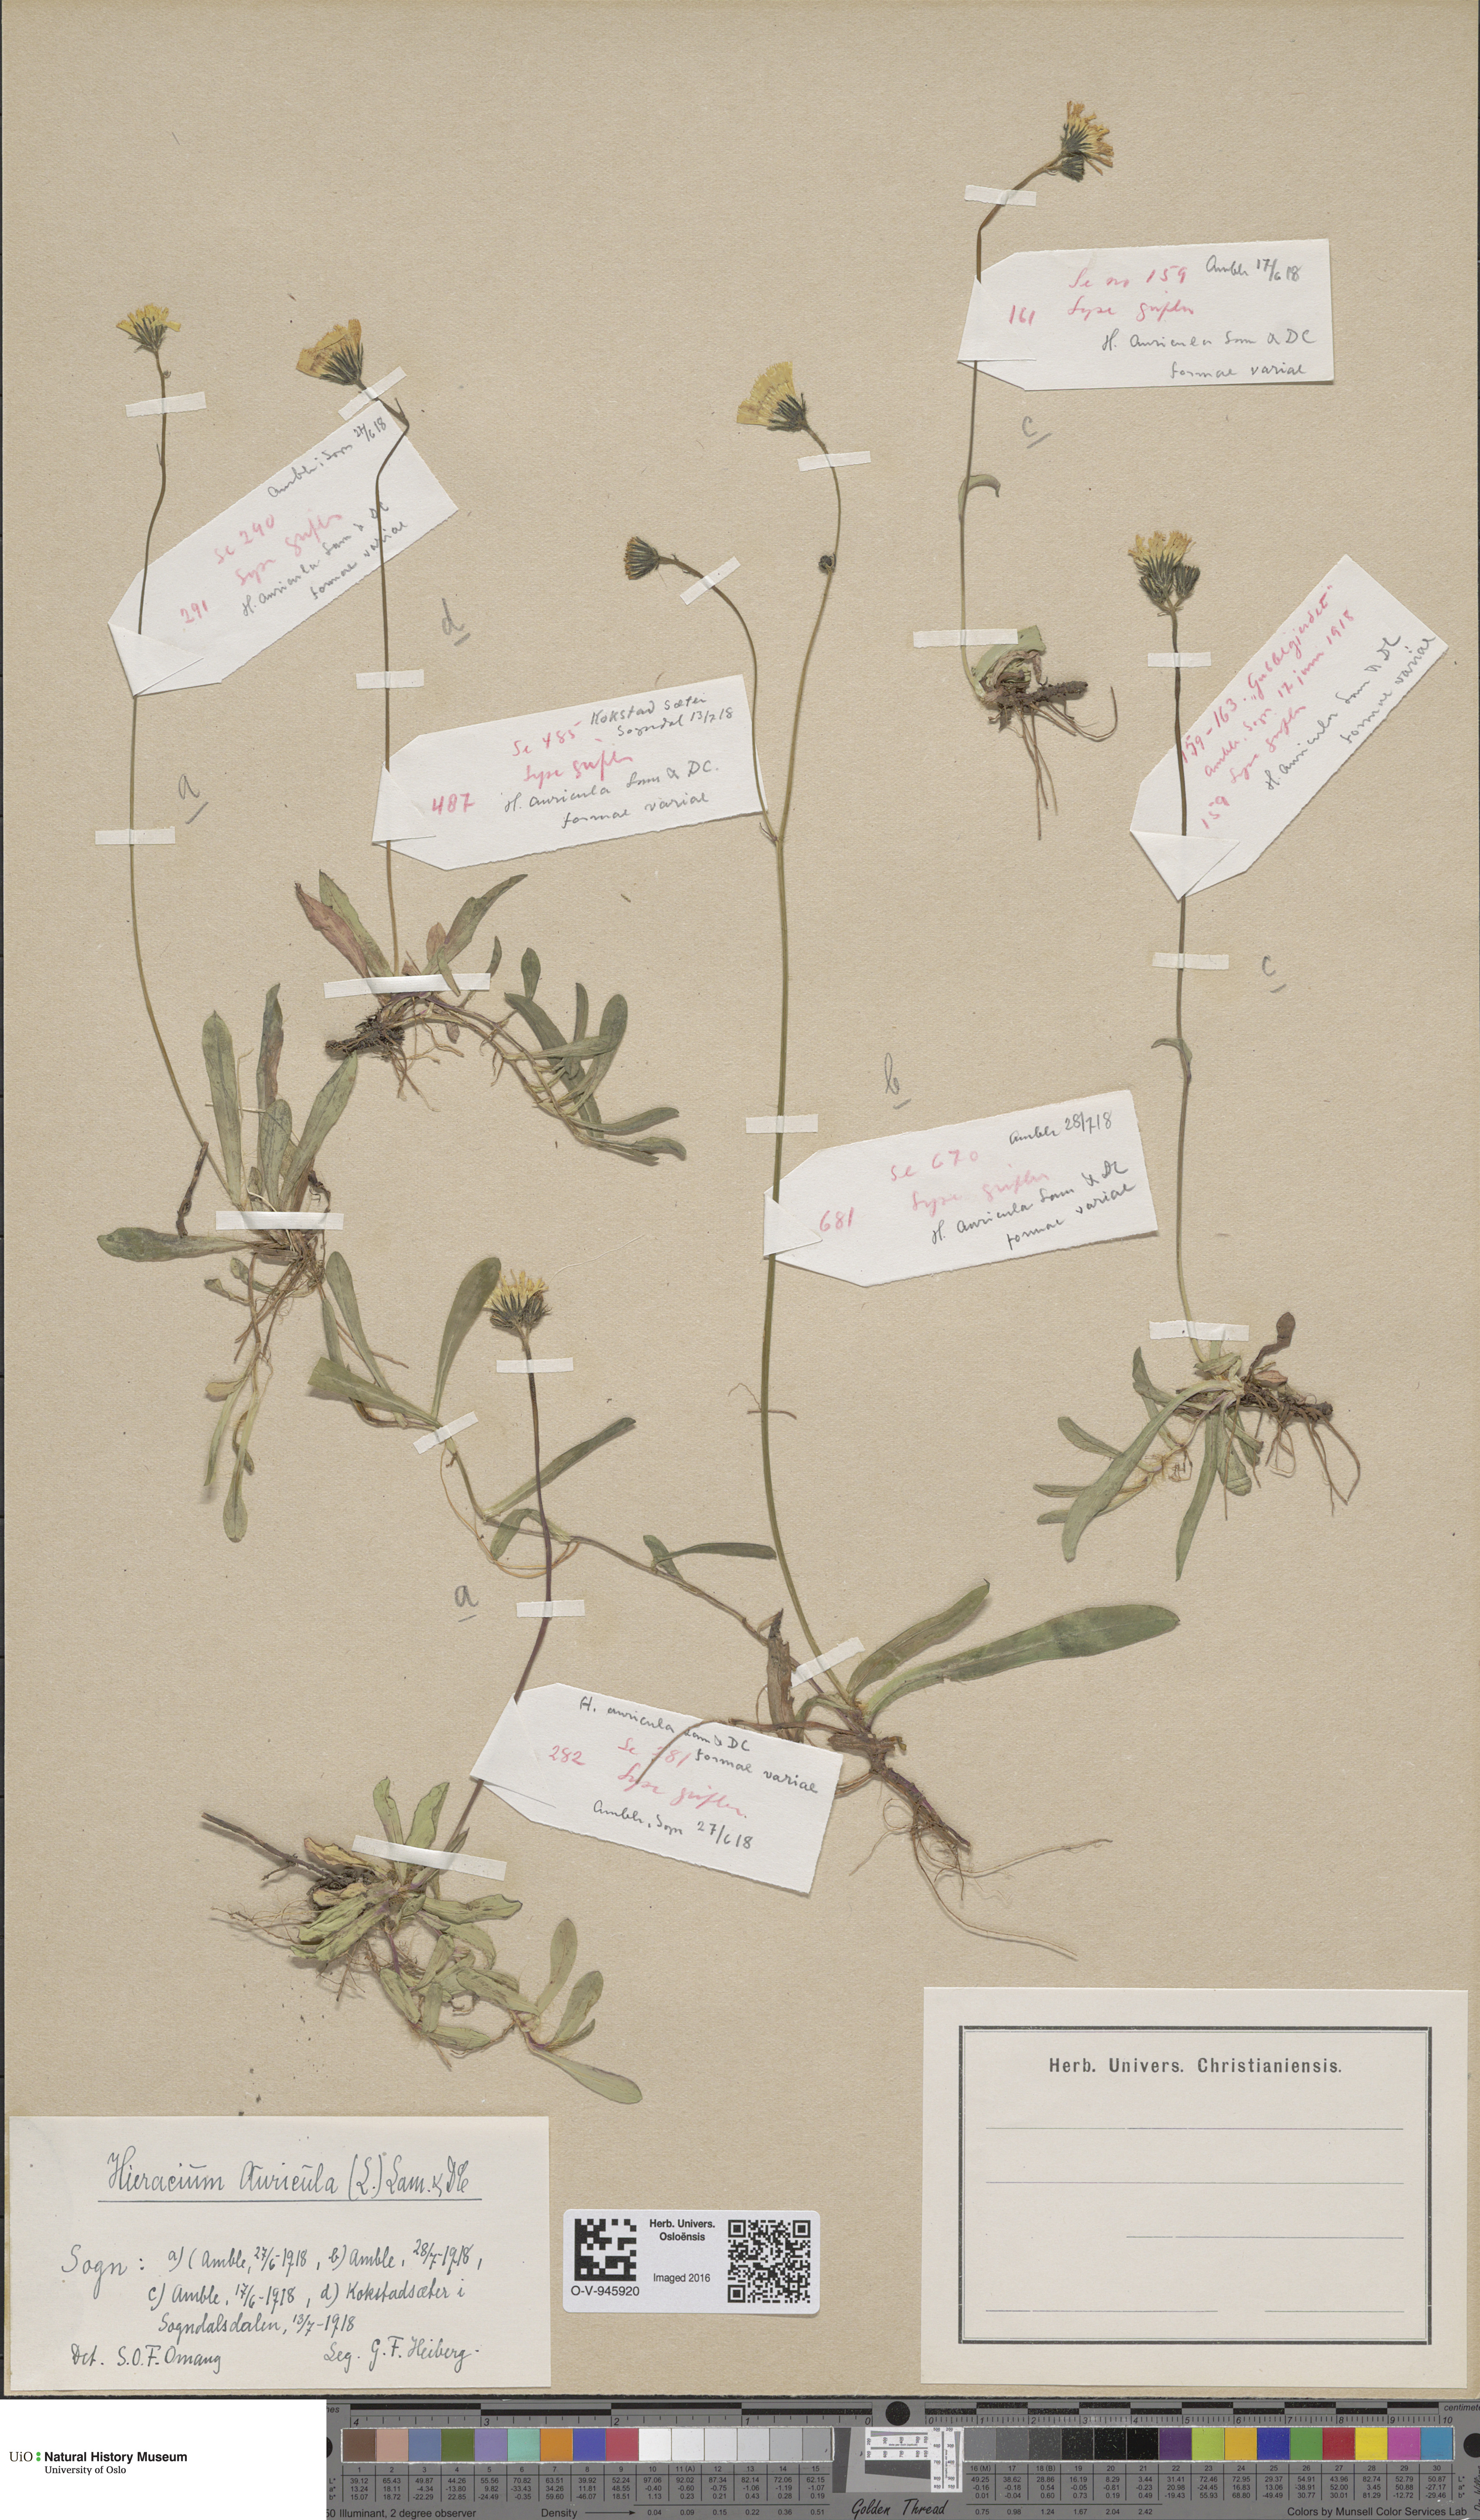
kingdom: Plantae
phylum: Tracheophyta
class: Magnoliopsida
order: Asterales
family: Asteraceae
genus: Pilosella
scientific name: Pilosella lactucella
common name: Glaucous fox-and-cubs
